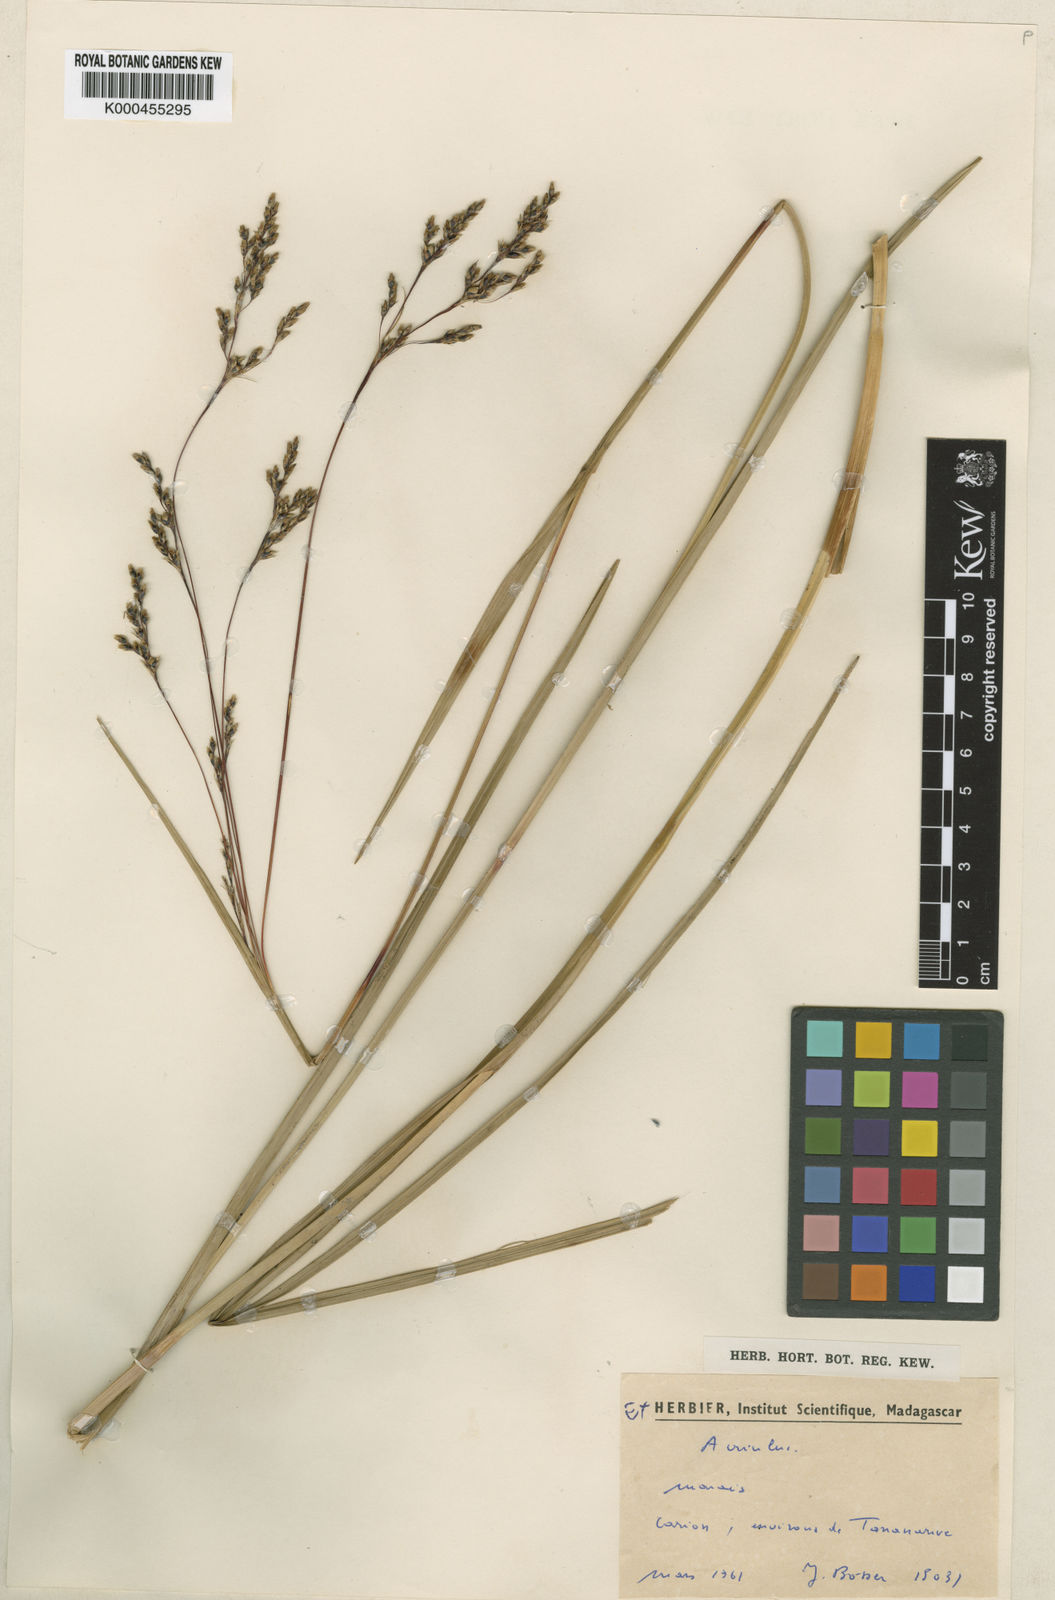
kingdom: Plantae
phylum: Tracheophyta
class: Liliopsida
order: Poales
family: Cyperaceae
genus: Scleria
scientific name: Scleria greigiifolia
